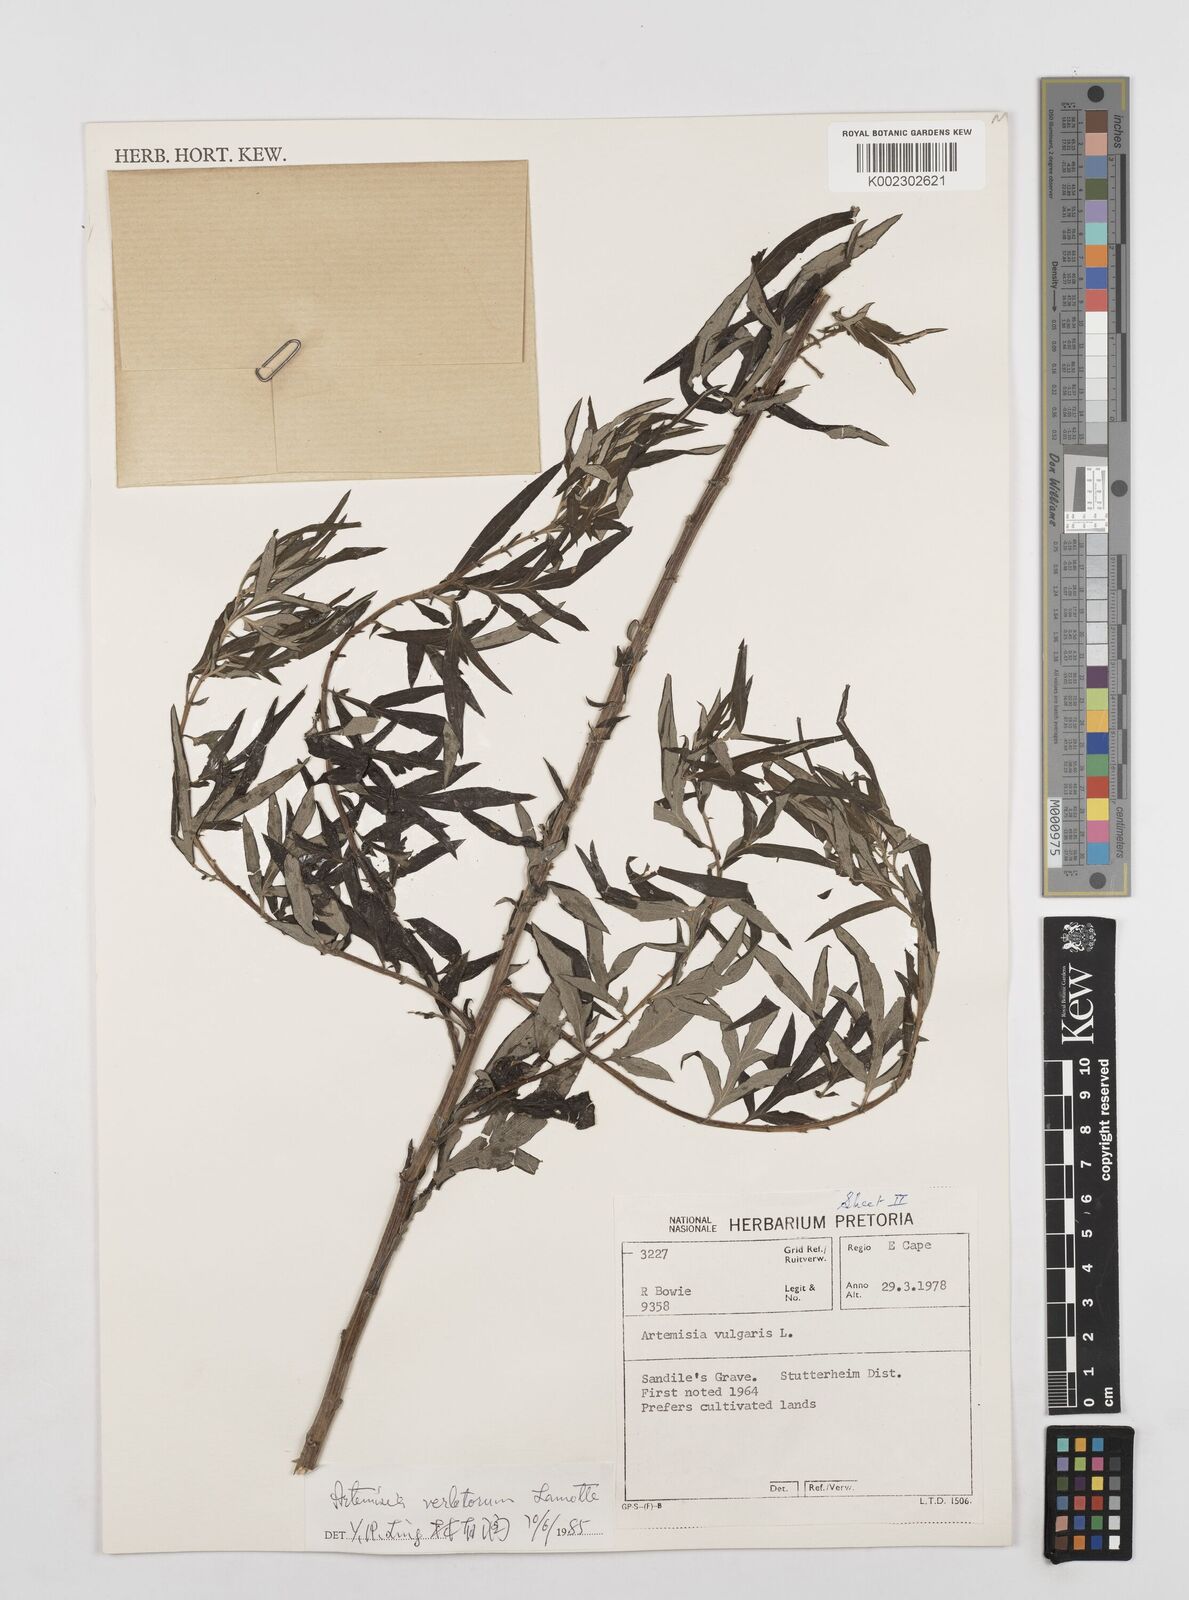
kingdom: Plantae
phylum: Tracheophyta
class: Magnoliopsida
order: Asterales
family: Asteraceae
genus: Artemisia
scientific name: Artemisia vulgaris
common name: Mugwort
